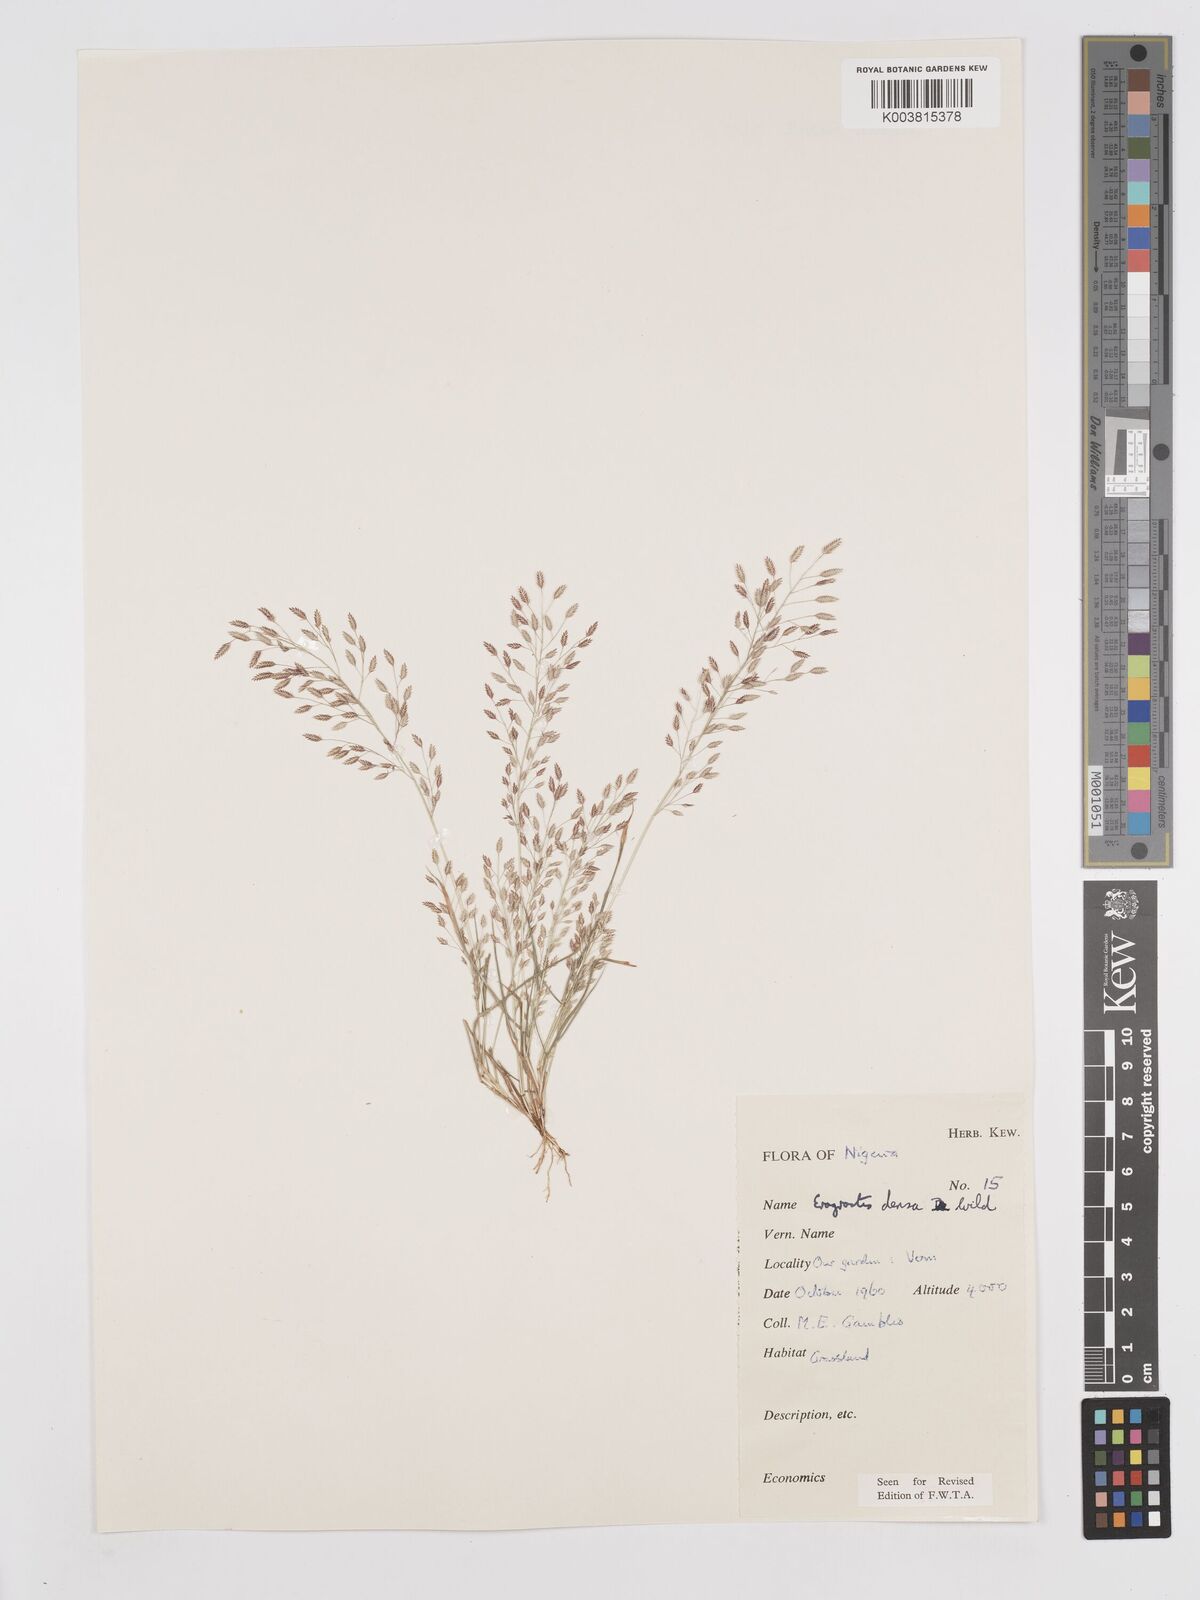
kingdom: Plantae
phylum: Tracheophyta
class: Liliopsida
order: Poales
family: Poaceae
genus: Eragrostis
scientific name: Eragrostis welwitschii
